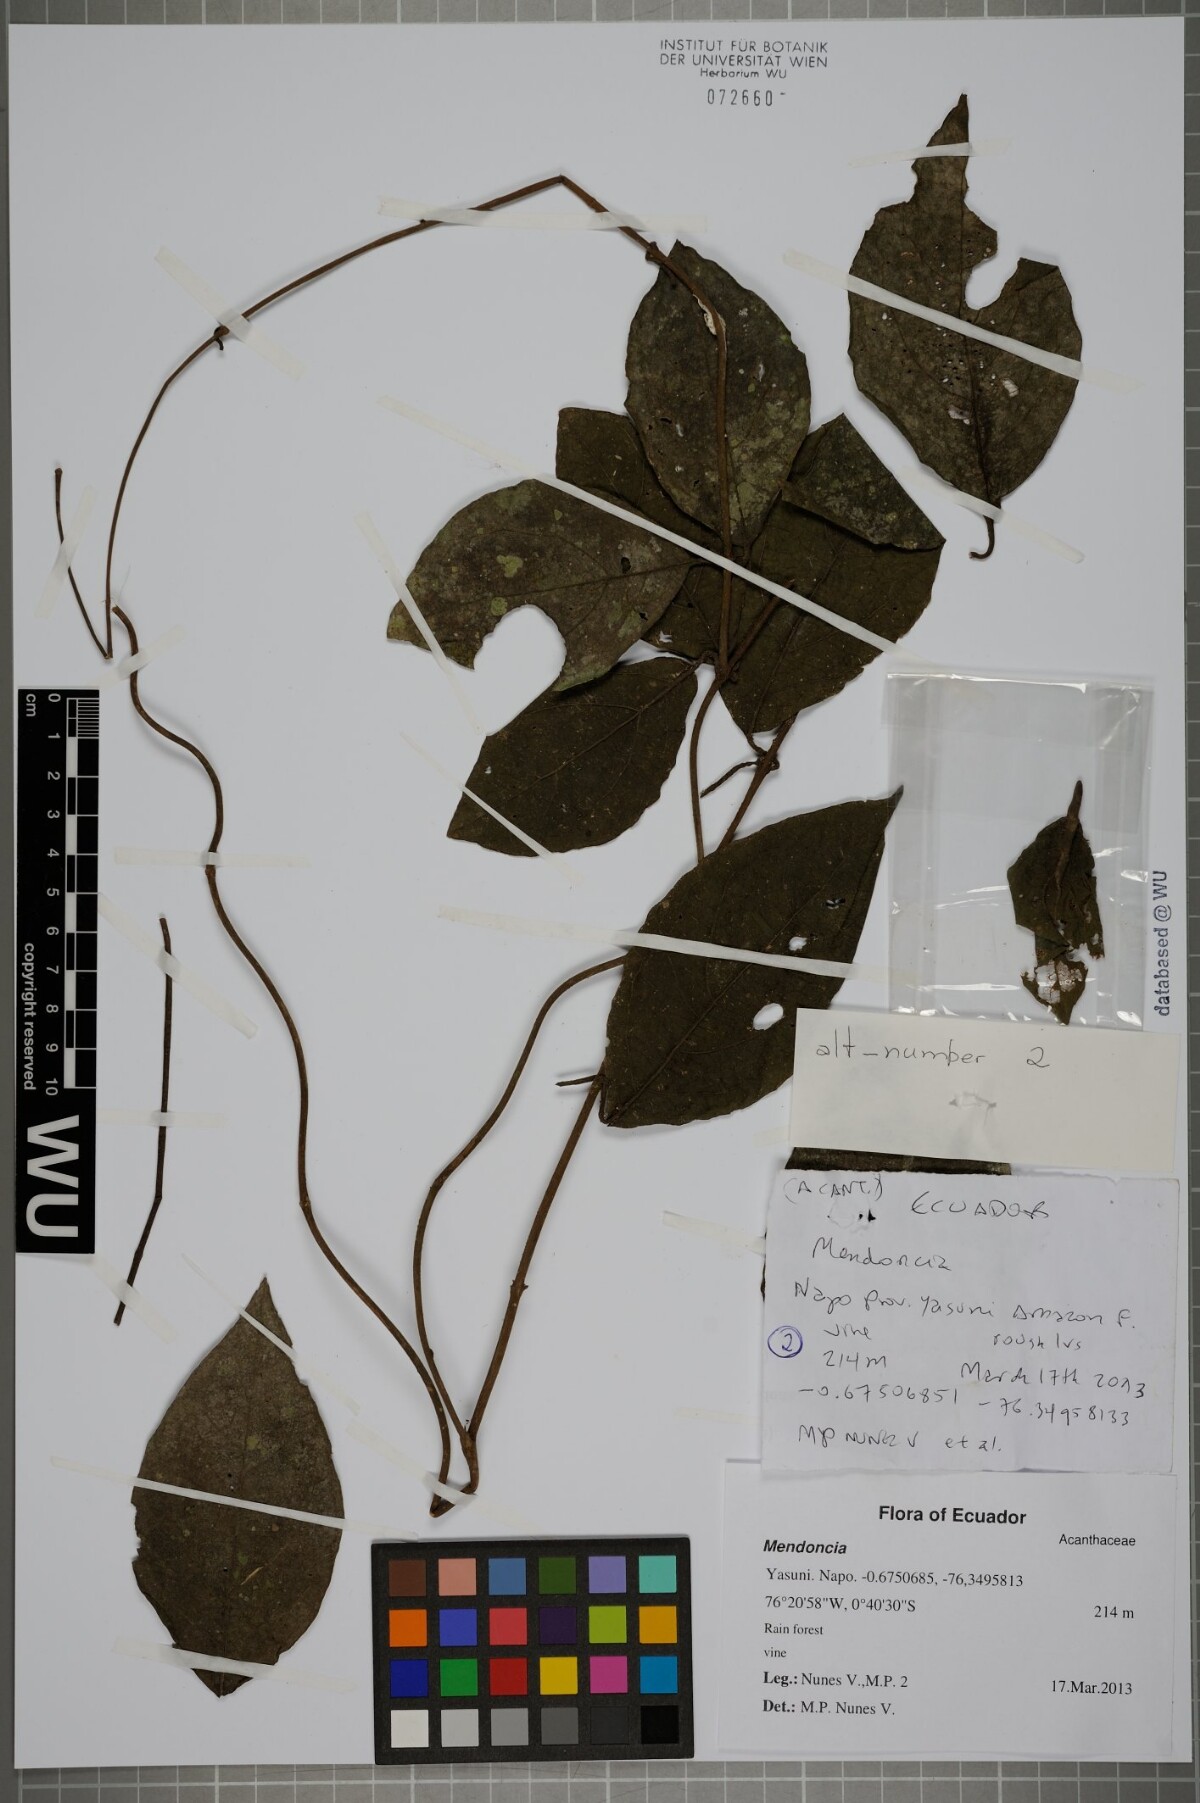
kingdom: Plantae
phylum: Tracheophyta
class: Magnoliopsida
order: Lamiales
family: Acanthaceae
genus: Mendoncia
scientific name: Mendoncia
